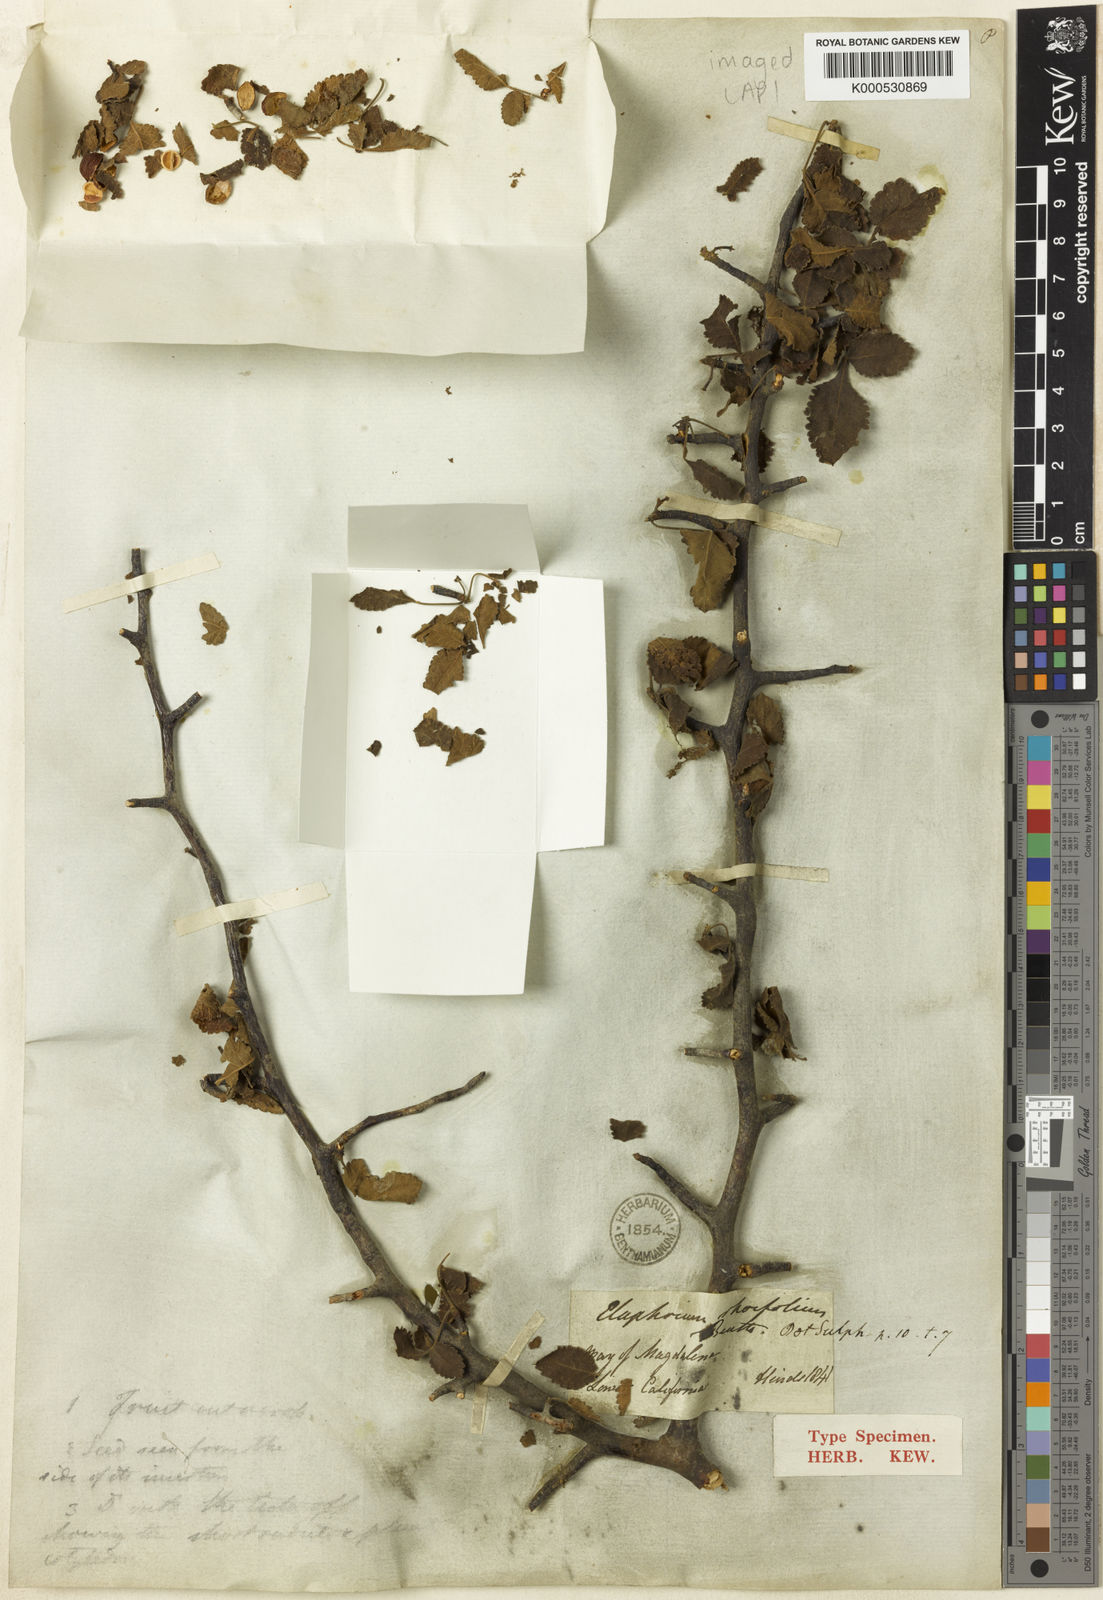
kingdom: Plantae
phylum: Tracheophyta
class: Magnoliopsida
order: Sapindales
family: Burseraceae
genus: Bursera
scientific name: Bursera hindsiana
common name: Red elephant tree
